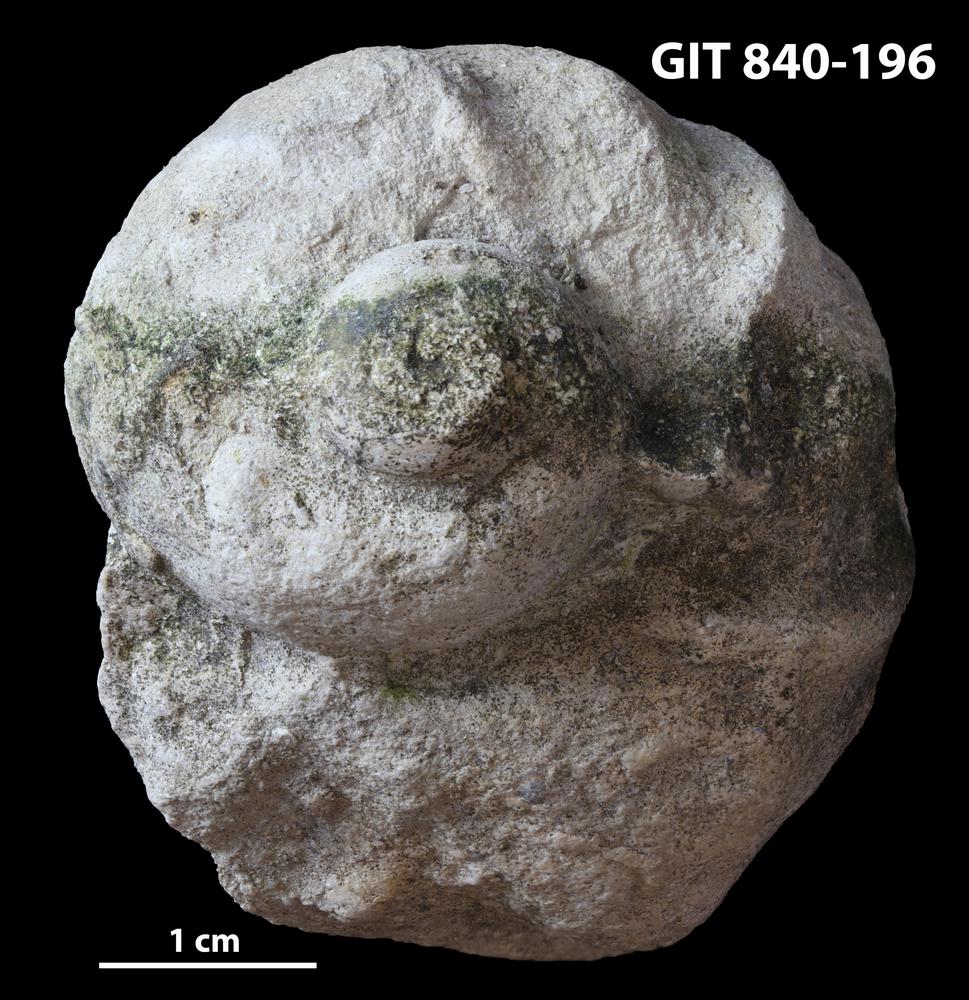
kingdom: Animalia
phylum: Mollusca
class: Gastropoda
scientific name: Gastropoda
